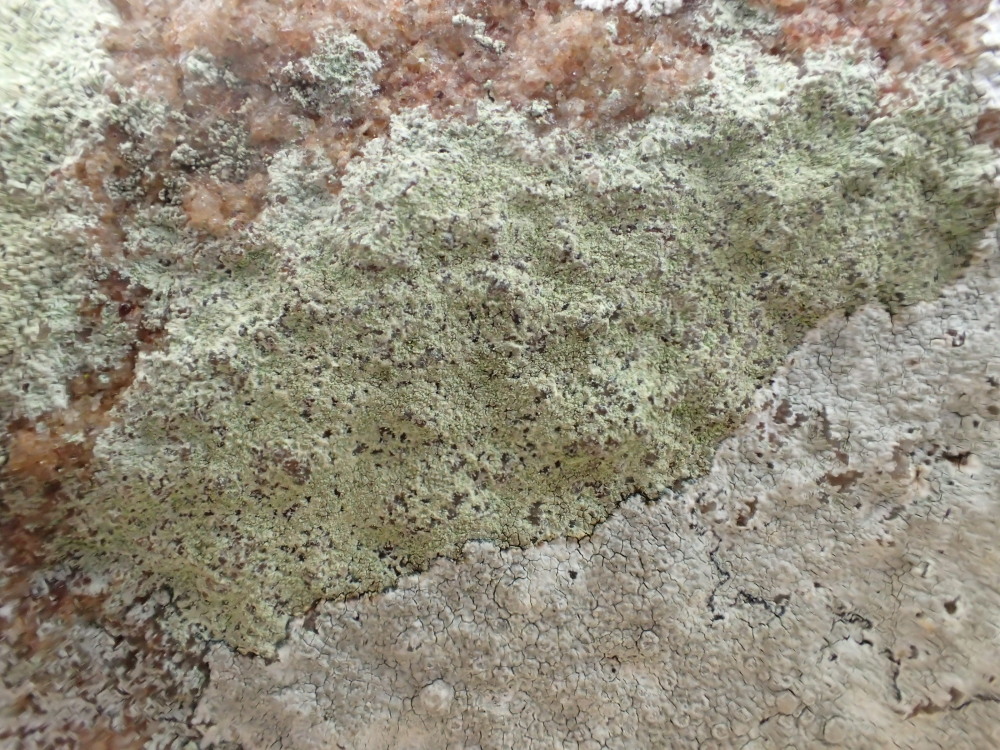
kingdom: Fungi
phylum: Ascomycota
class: Lecanoromycetes
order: Lecanorales
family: Lecanoraceae
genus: Glaucomaria
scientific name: Glaucomaria sulphurea
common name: svovlgul kantskivelav
